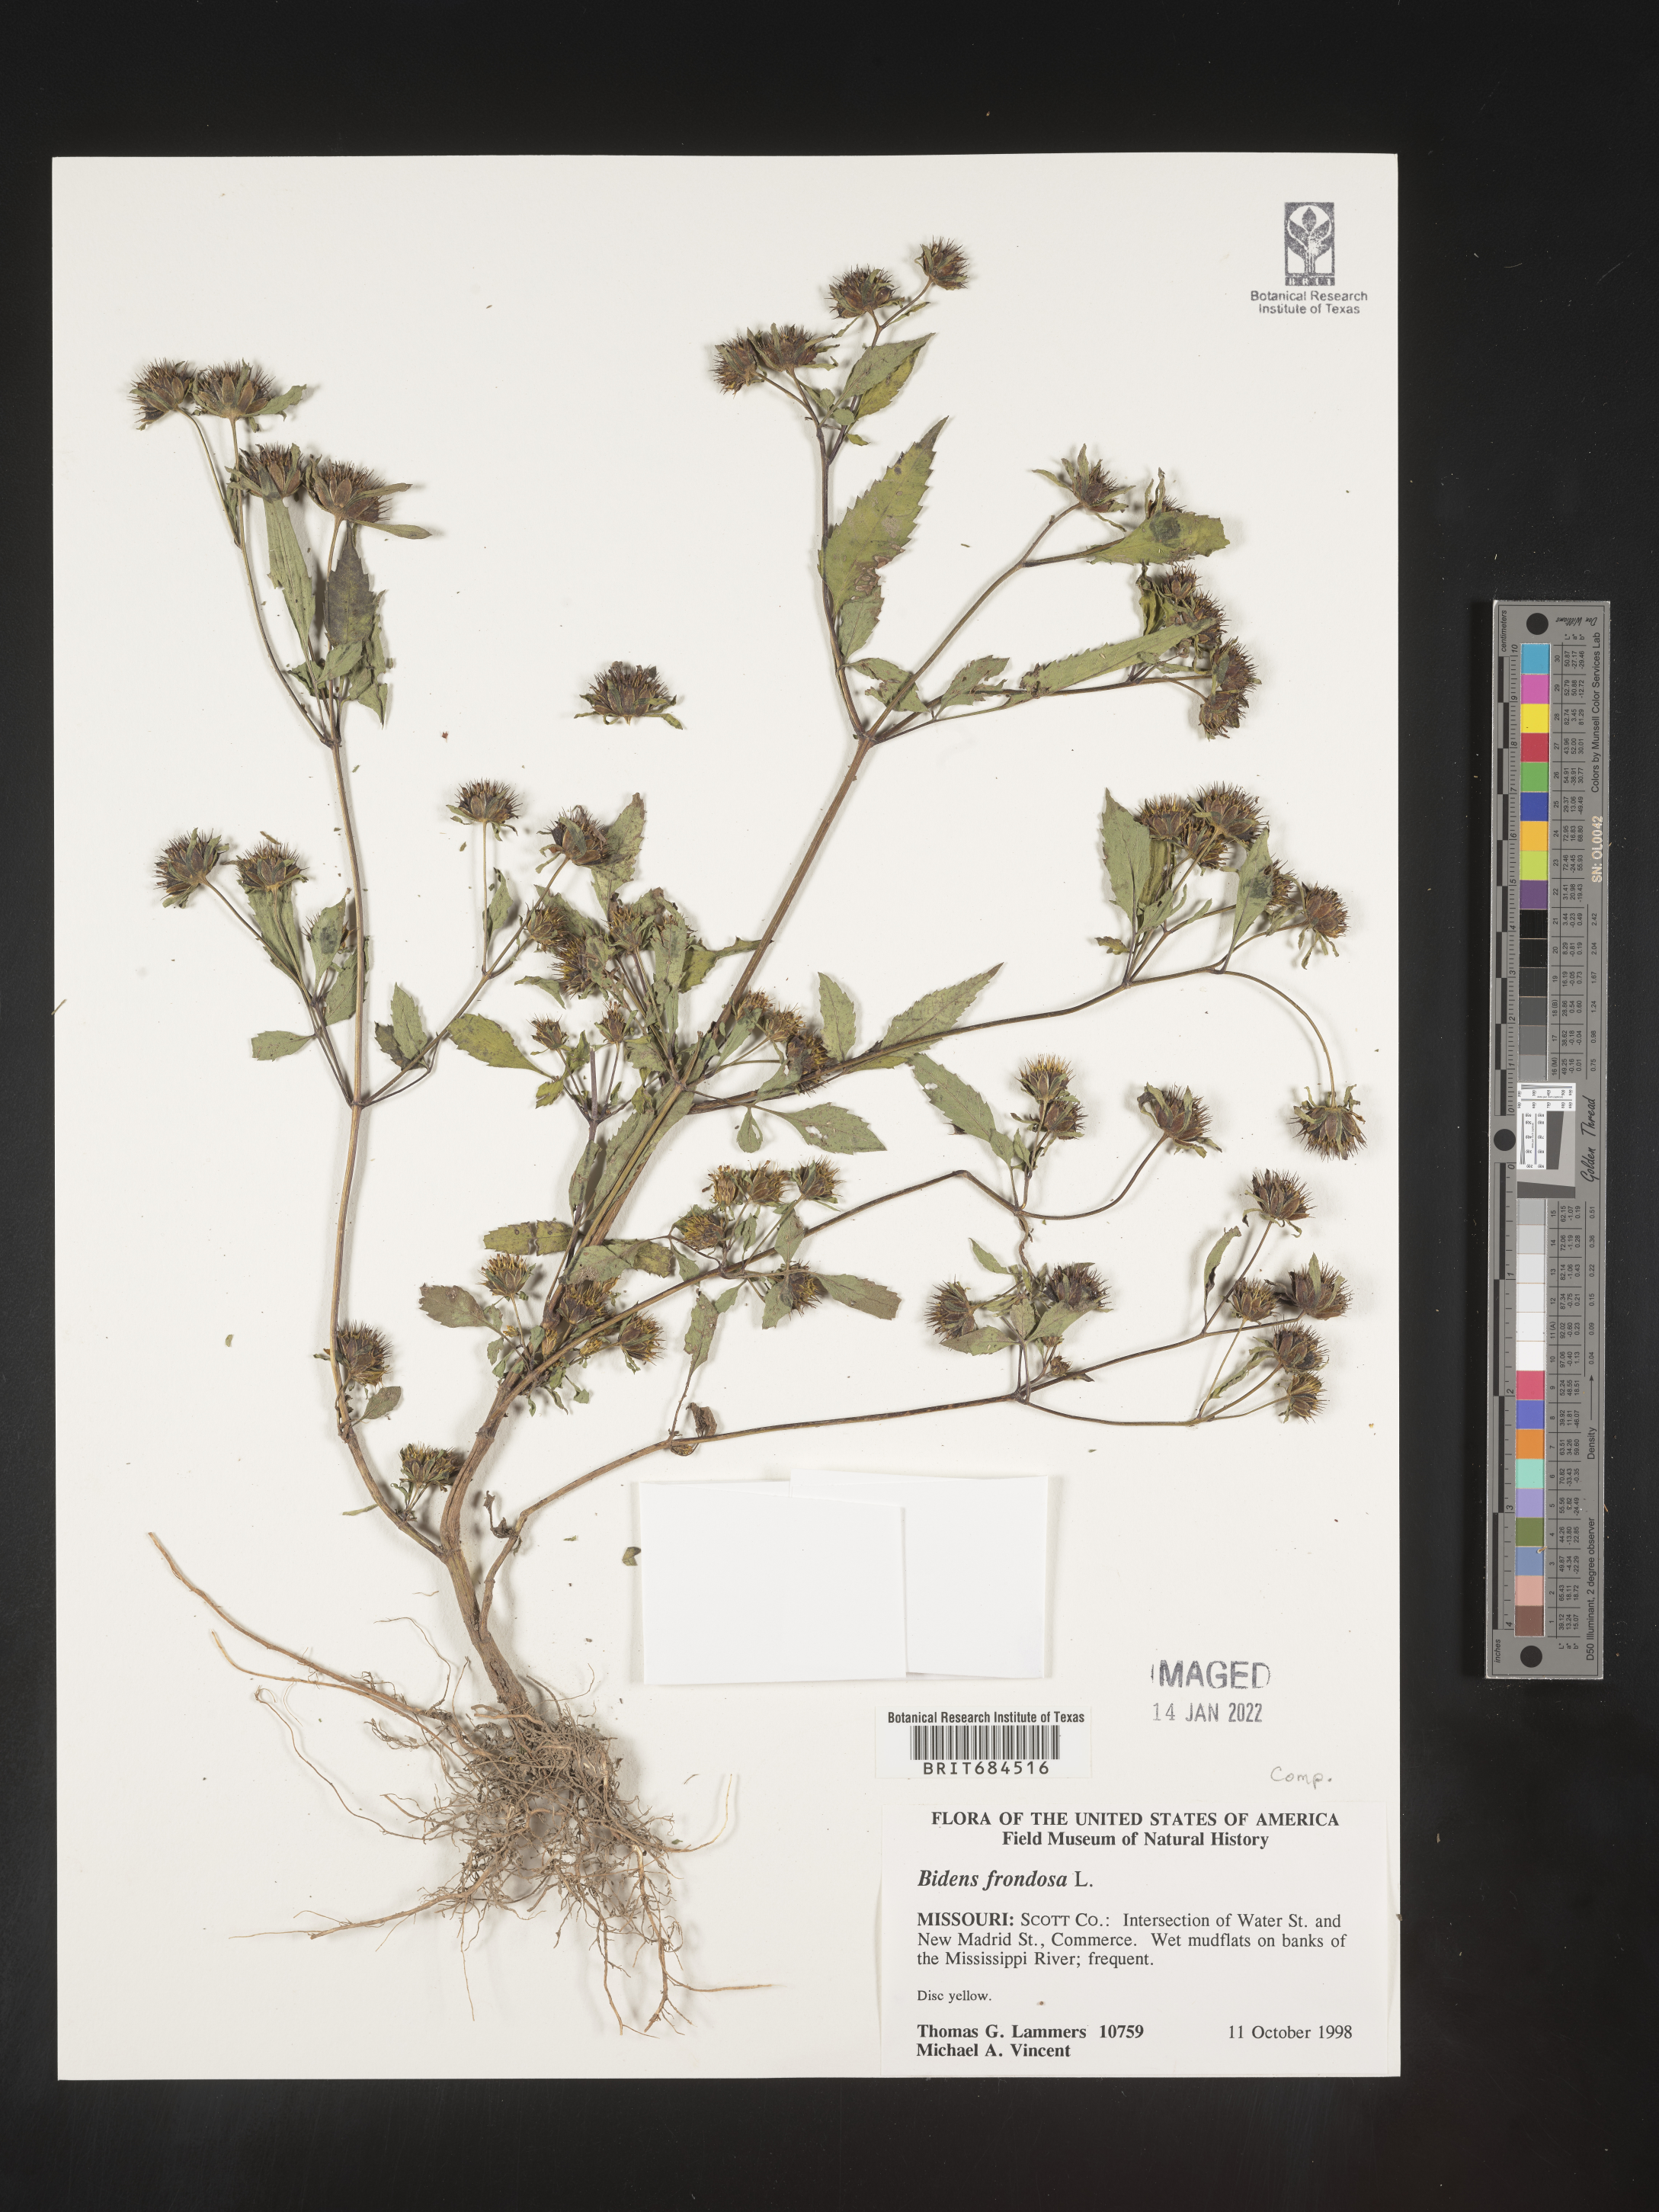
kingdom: Plantae
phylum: Tracheophyta
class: Magnoliopsida
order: Asterales
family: Asteraceae
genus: Bidens
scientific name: Bidens frondosa
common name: Beggarticks
